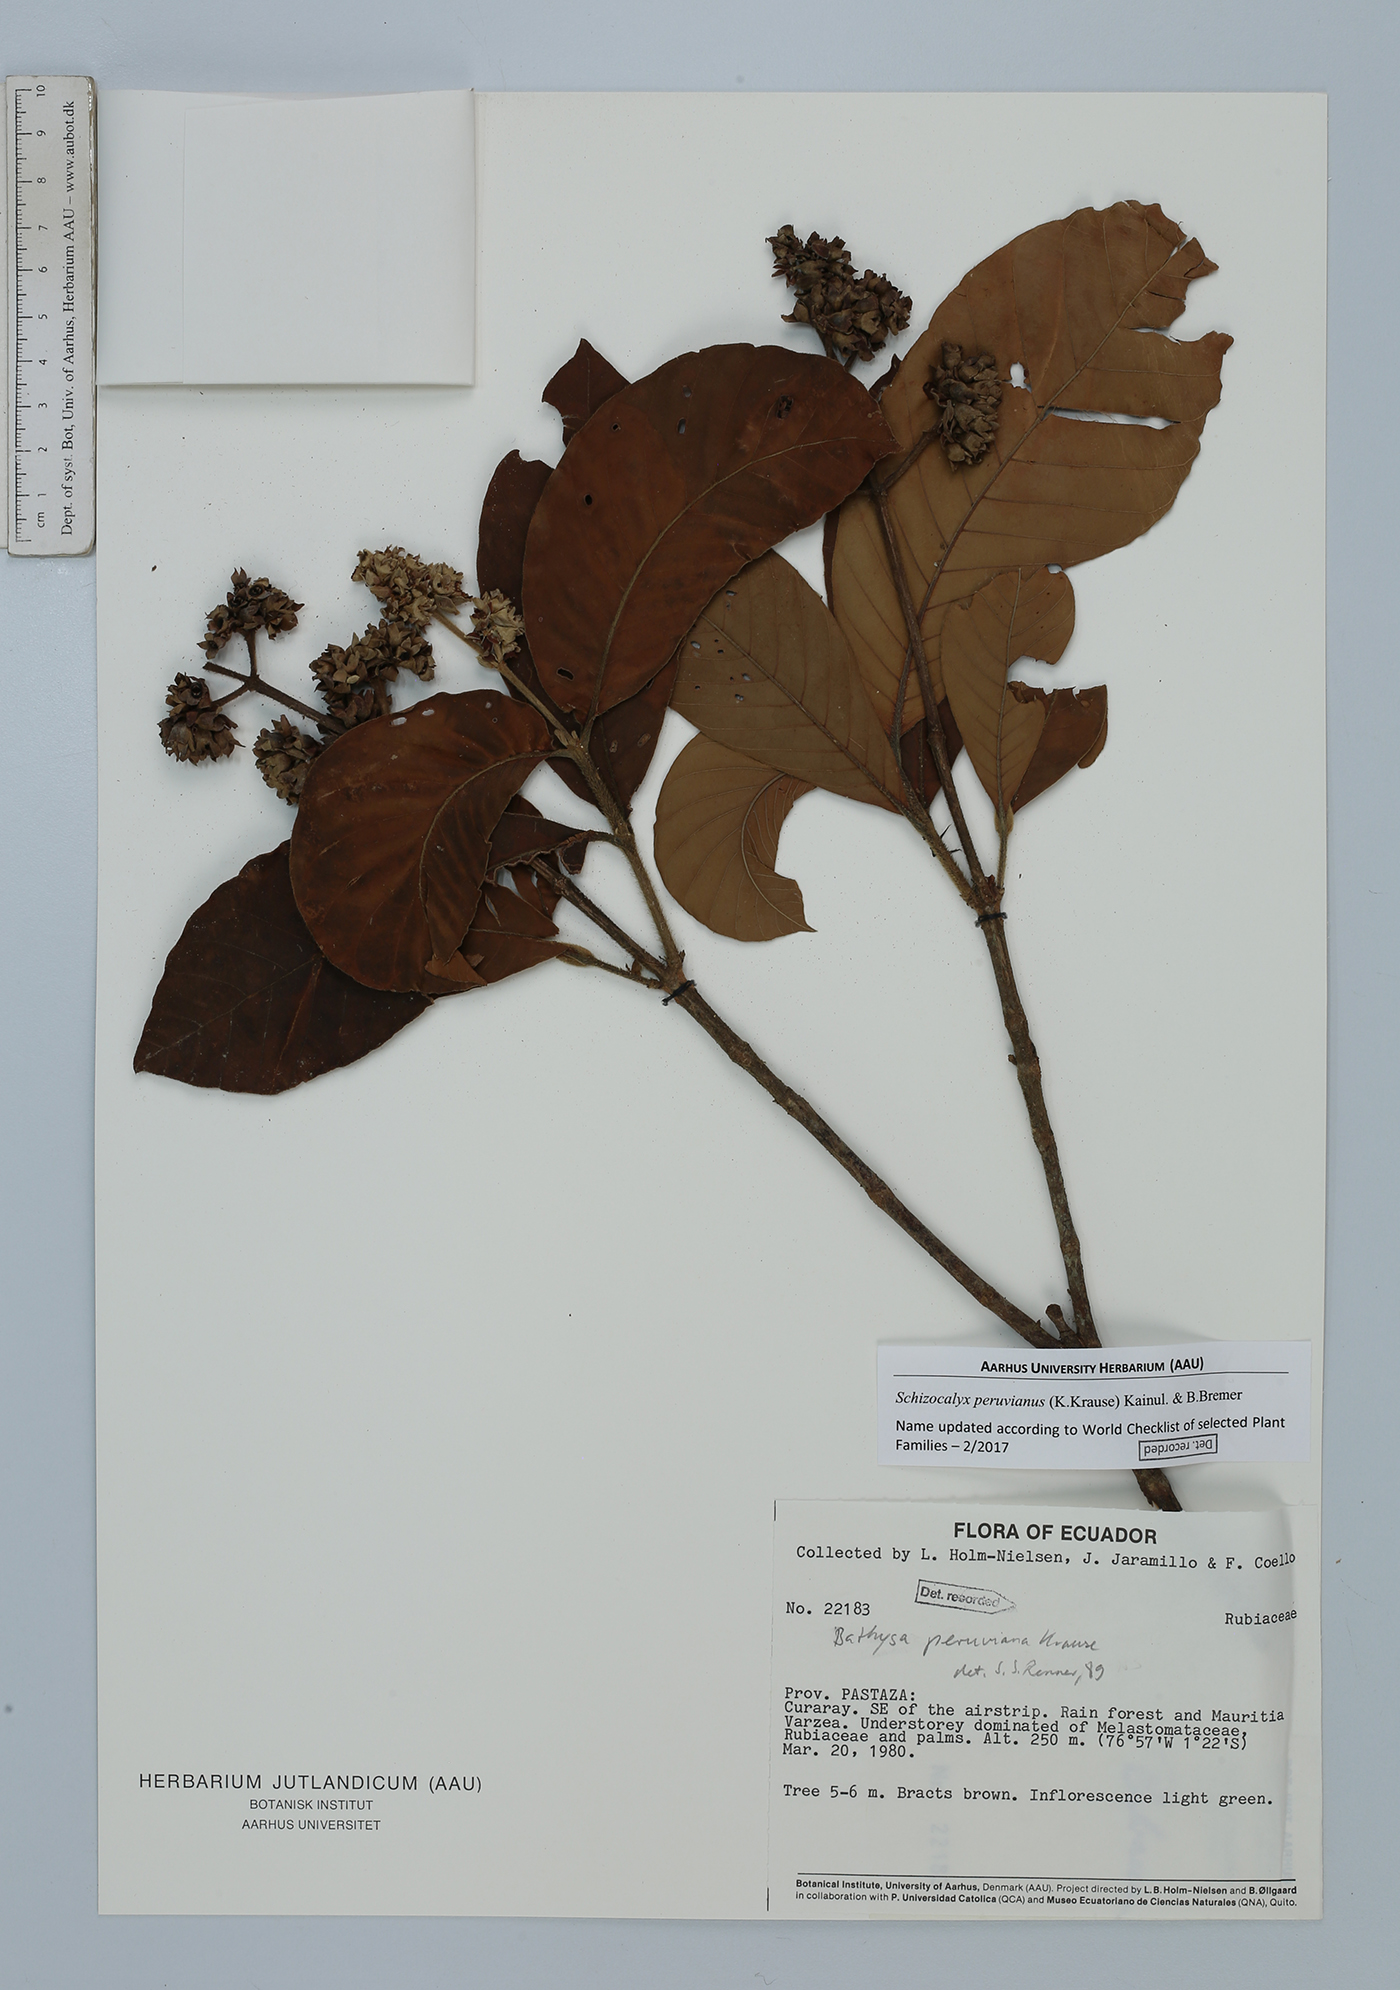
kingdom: Plantae
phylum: Tracheophyta
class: Magnoliopsida
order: Gentianales
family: Rubiaceae
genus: Schizocalyx
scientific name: Schizocalyx peruvianus
